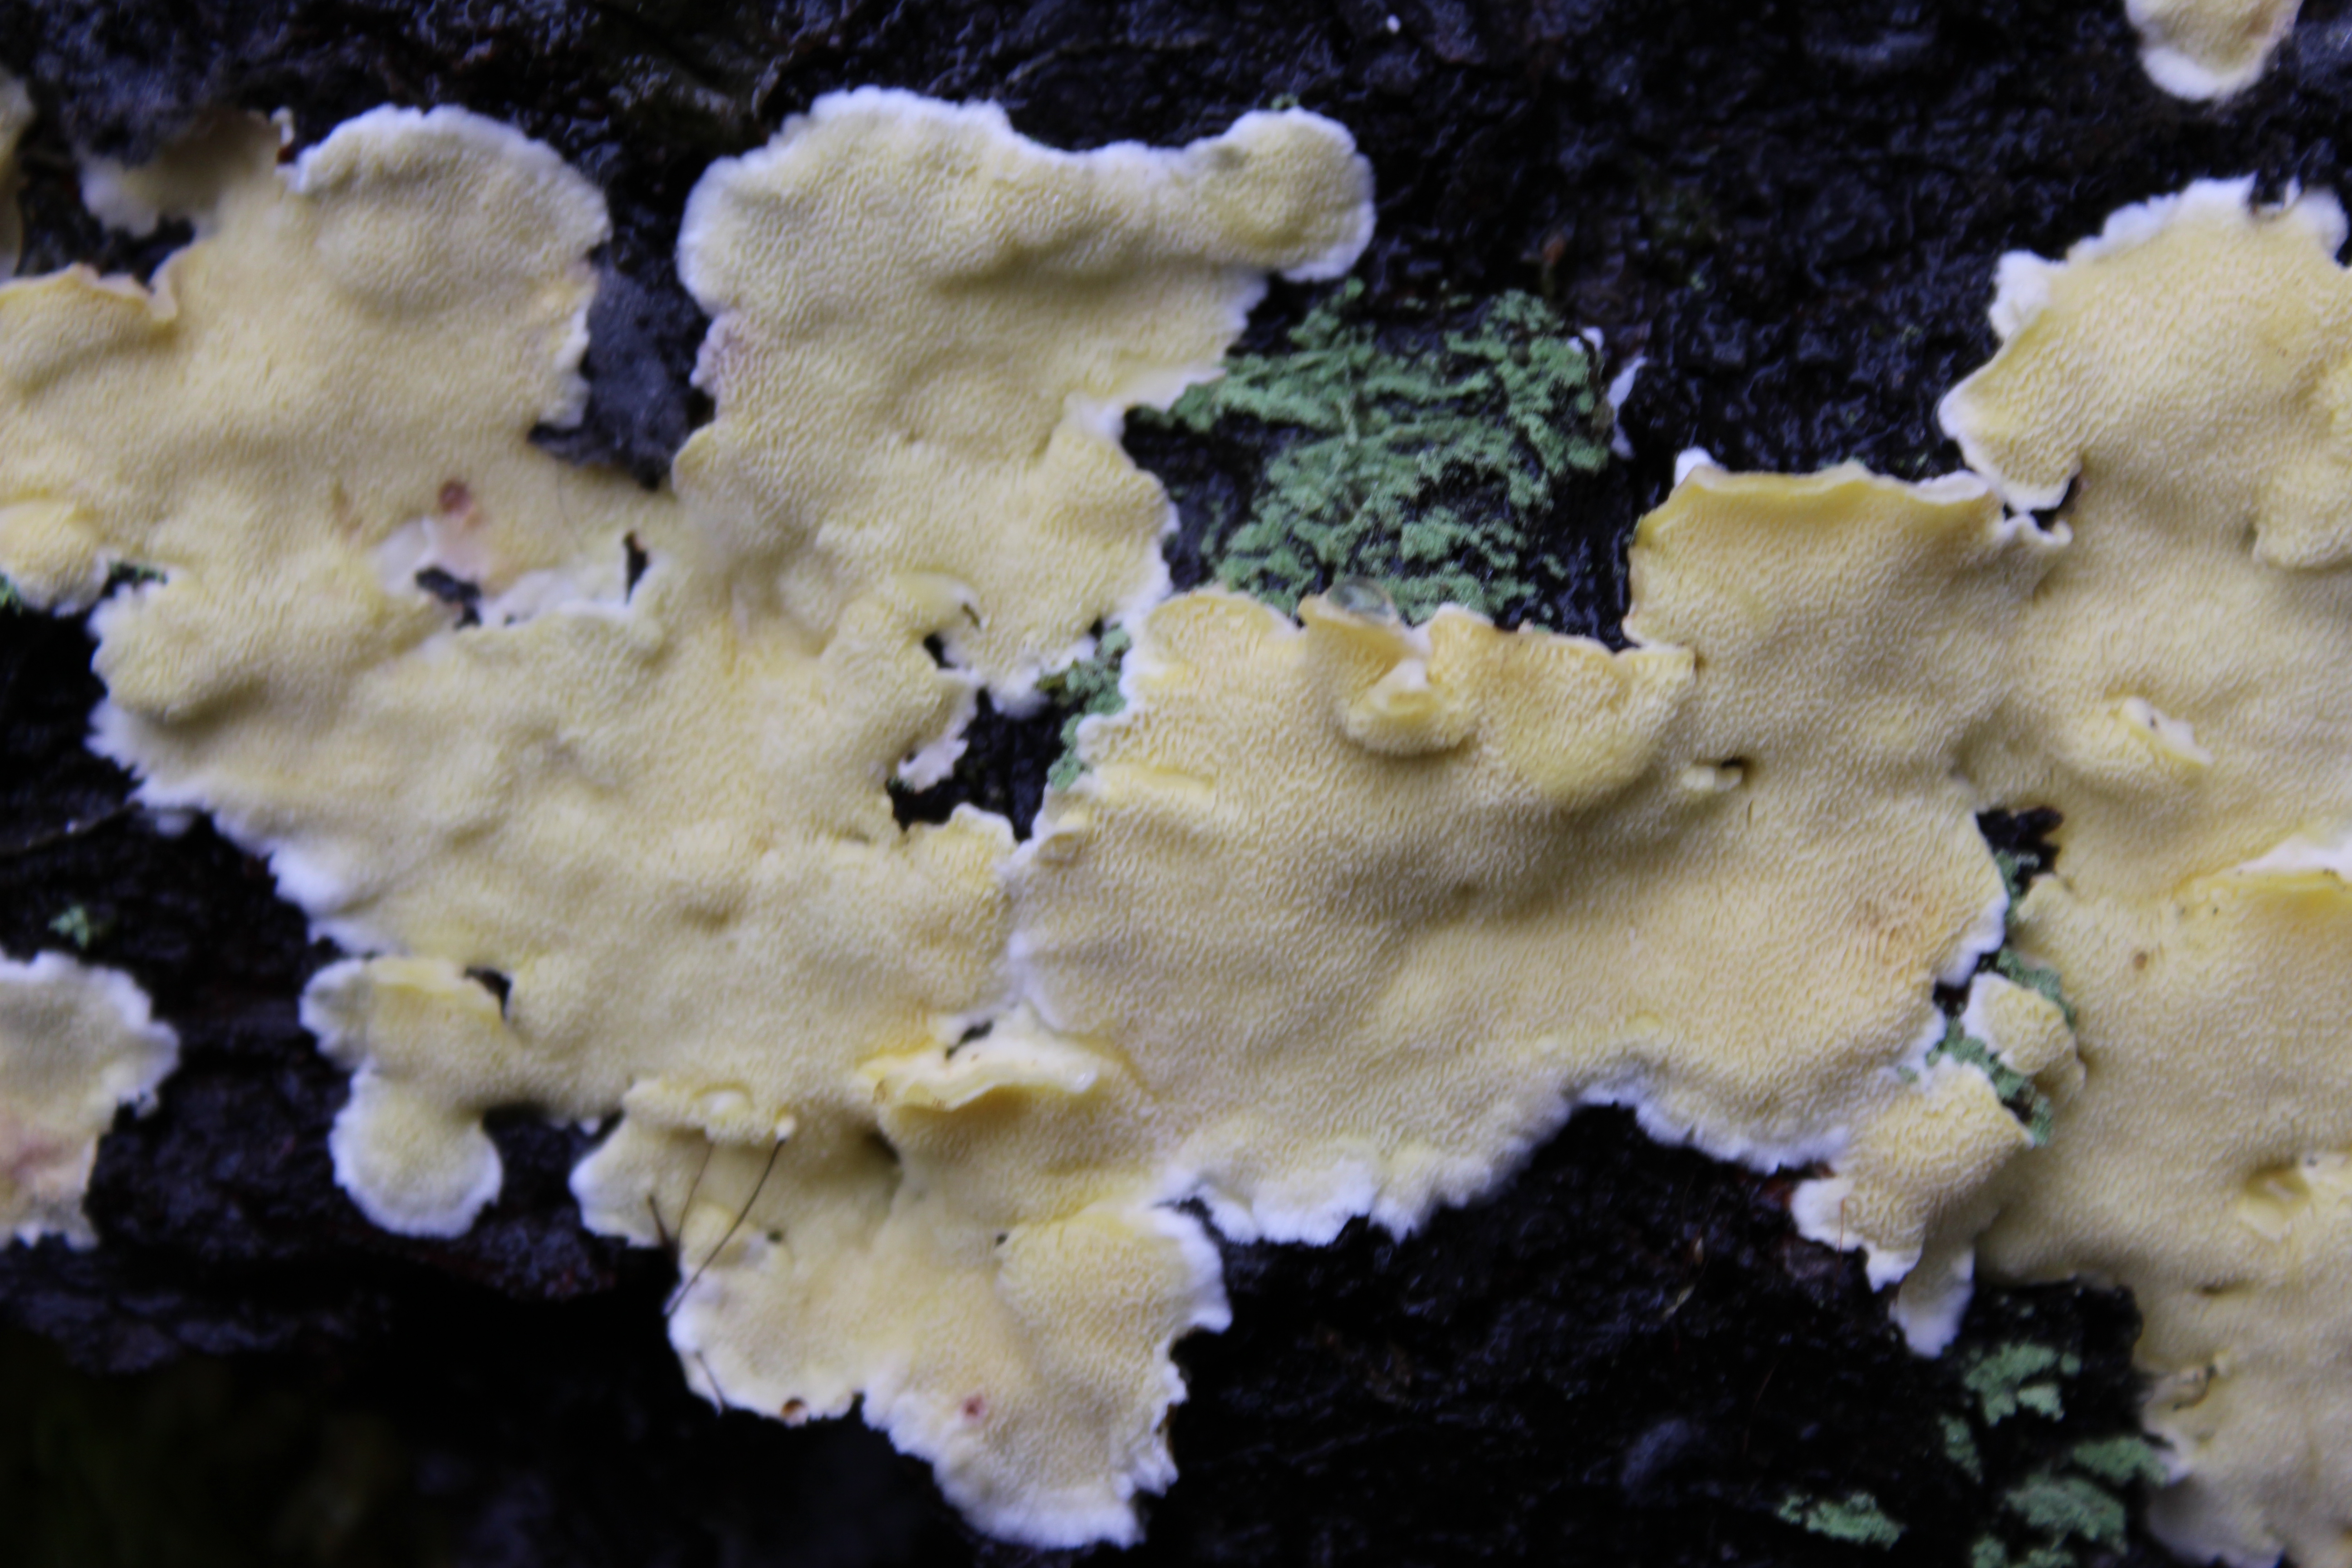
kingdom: Fungi
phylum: Basidiomycota
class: Agaricomycetes
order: Polyporales
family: Steccherinaceae
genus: Flaviporus
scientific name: Flaviporus citrinellus
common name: Lemon-colored antrodiella
